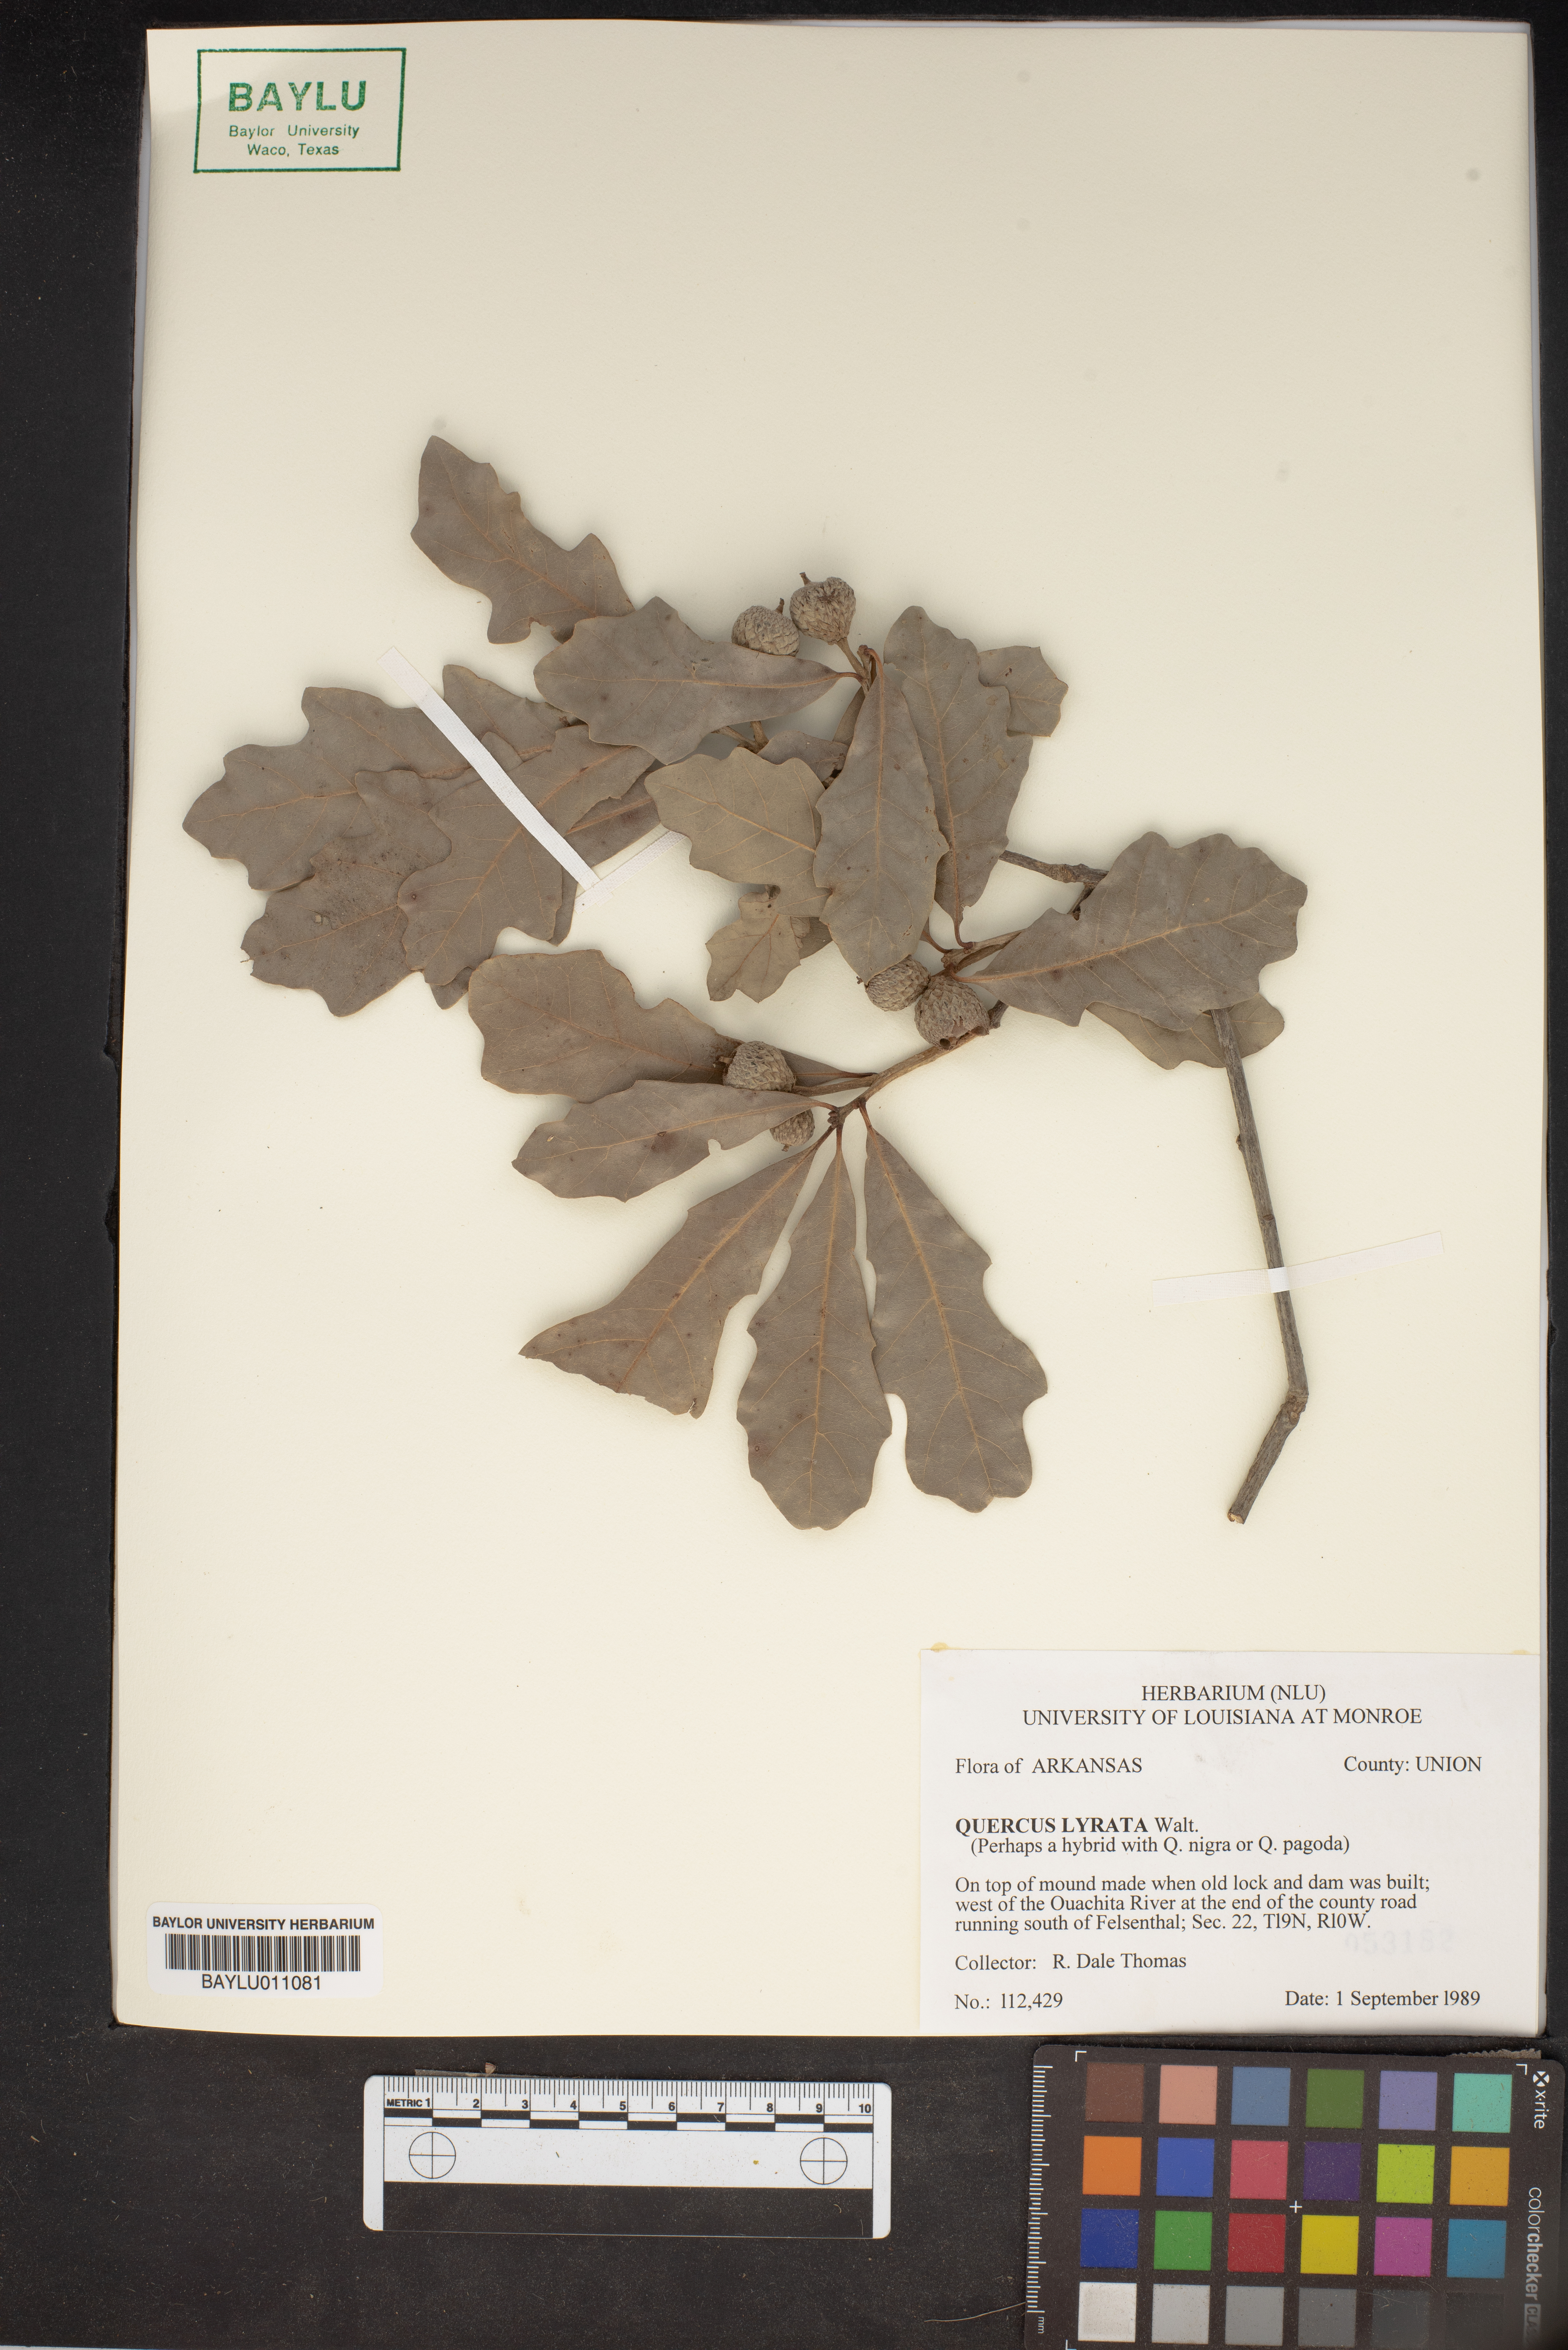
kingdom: Plantae
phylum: Tracheophyta
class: Magnoliopsida
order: Fagales
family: Fagaceae
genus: Quercus
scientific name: Quercus lyrata
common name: Overcup oak
